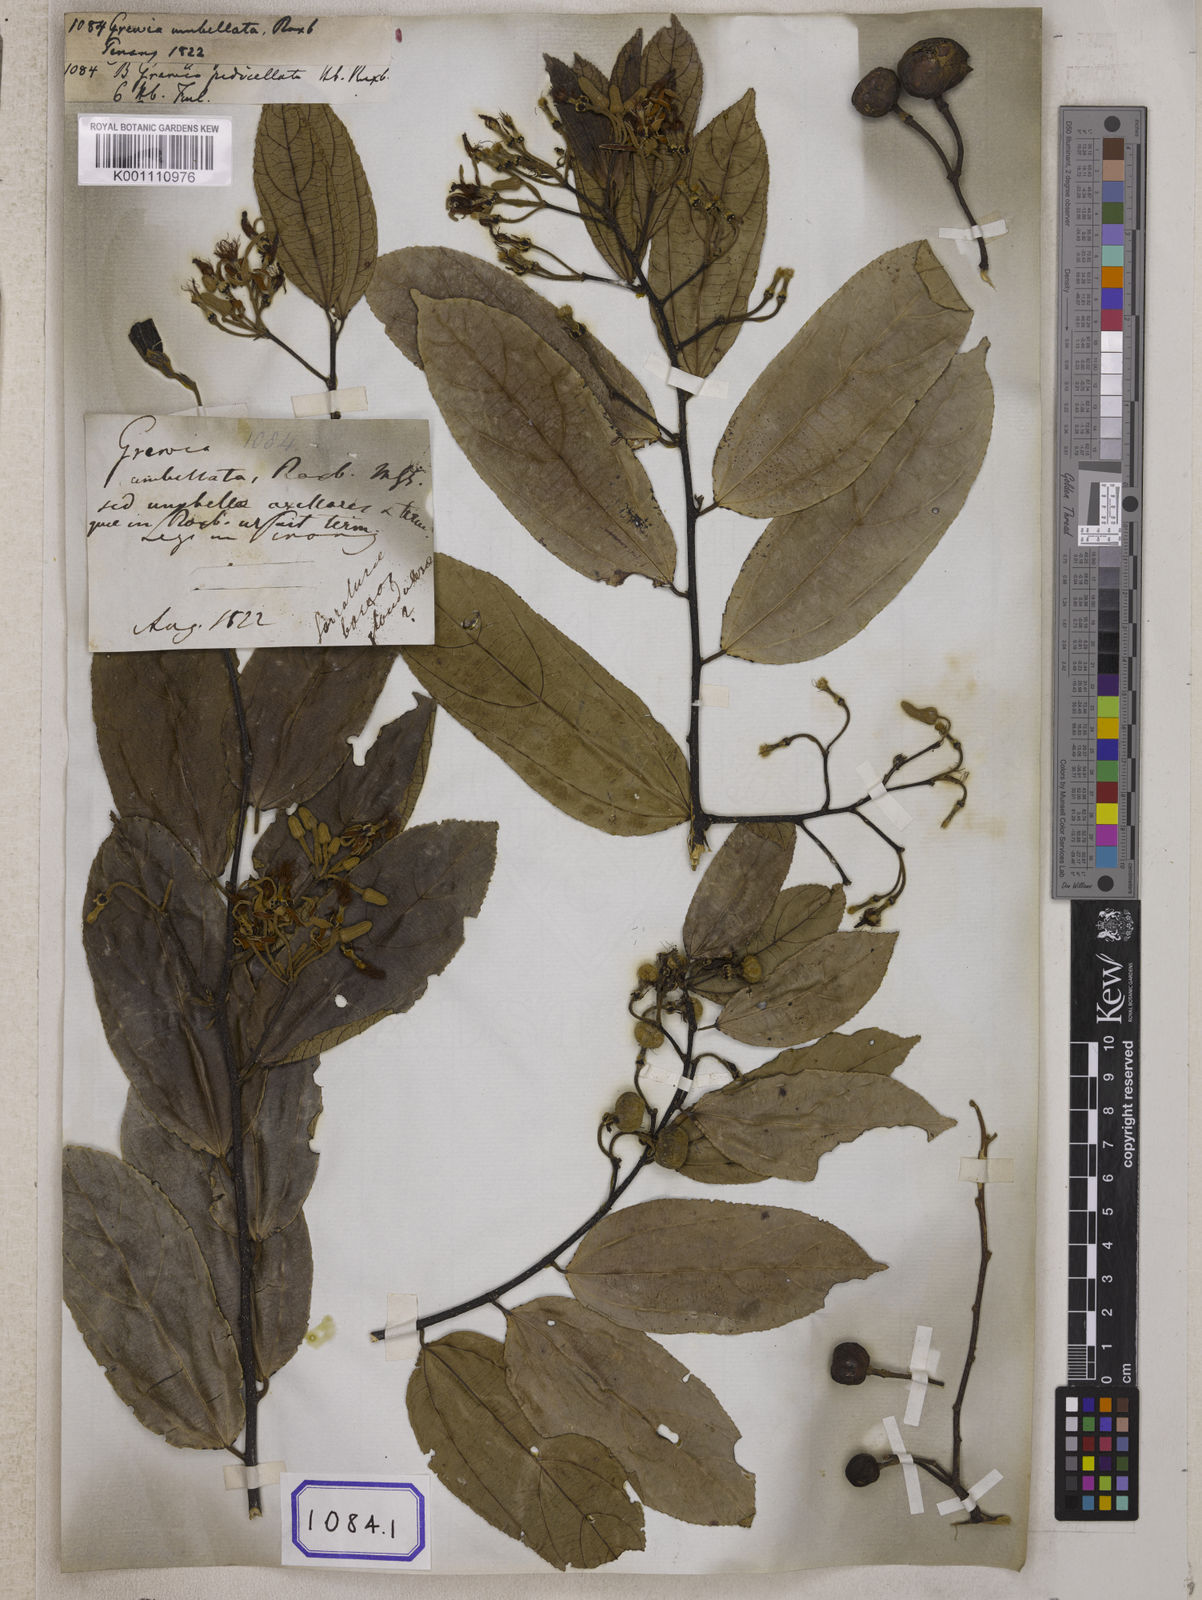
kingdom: Plantae
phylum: Tracheophyta
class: Magnoliopsida
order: Malvales
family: Malvaceae
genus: Grewia
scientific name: Grewia
